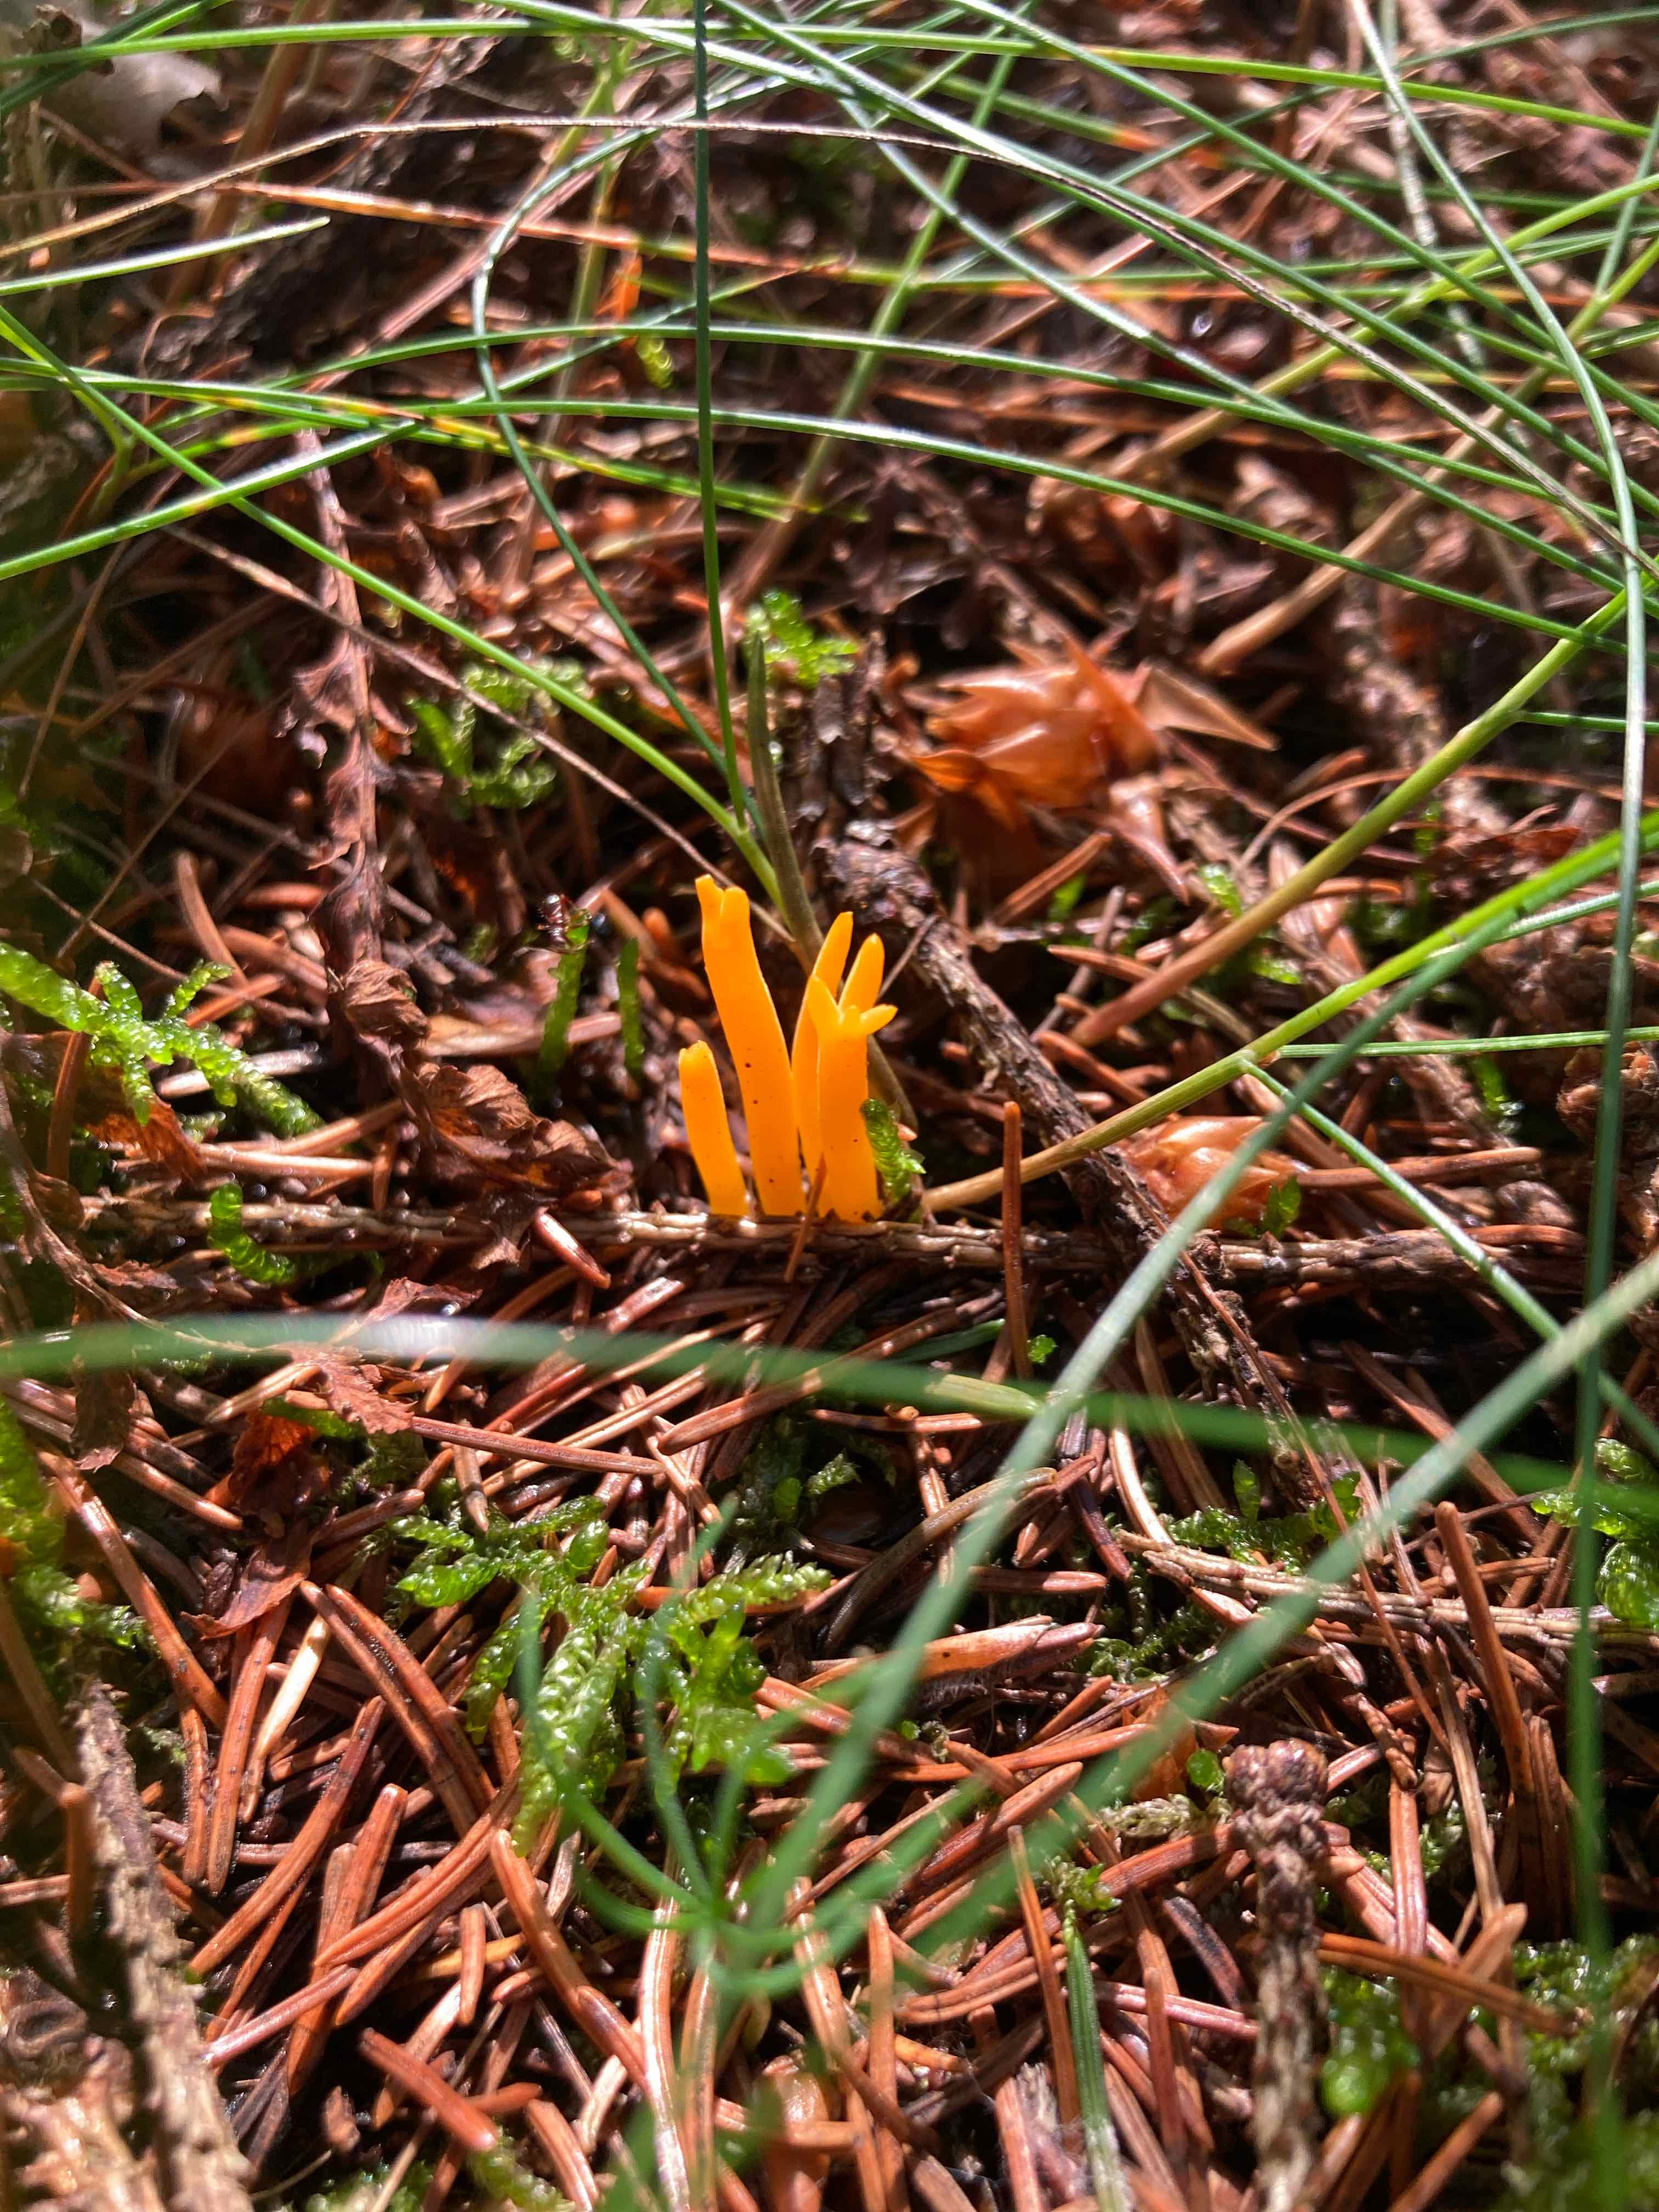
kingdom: Fungi
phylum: Basidiomycota
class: Dacrymycetes
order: Dacrymycetales
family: Dacrymycetaceae
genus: Calocera
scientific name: Calocera viscosa
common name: almindelig guldgaffel
